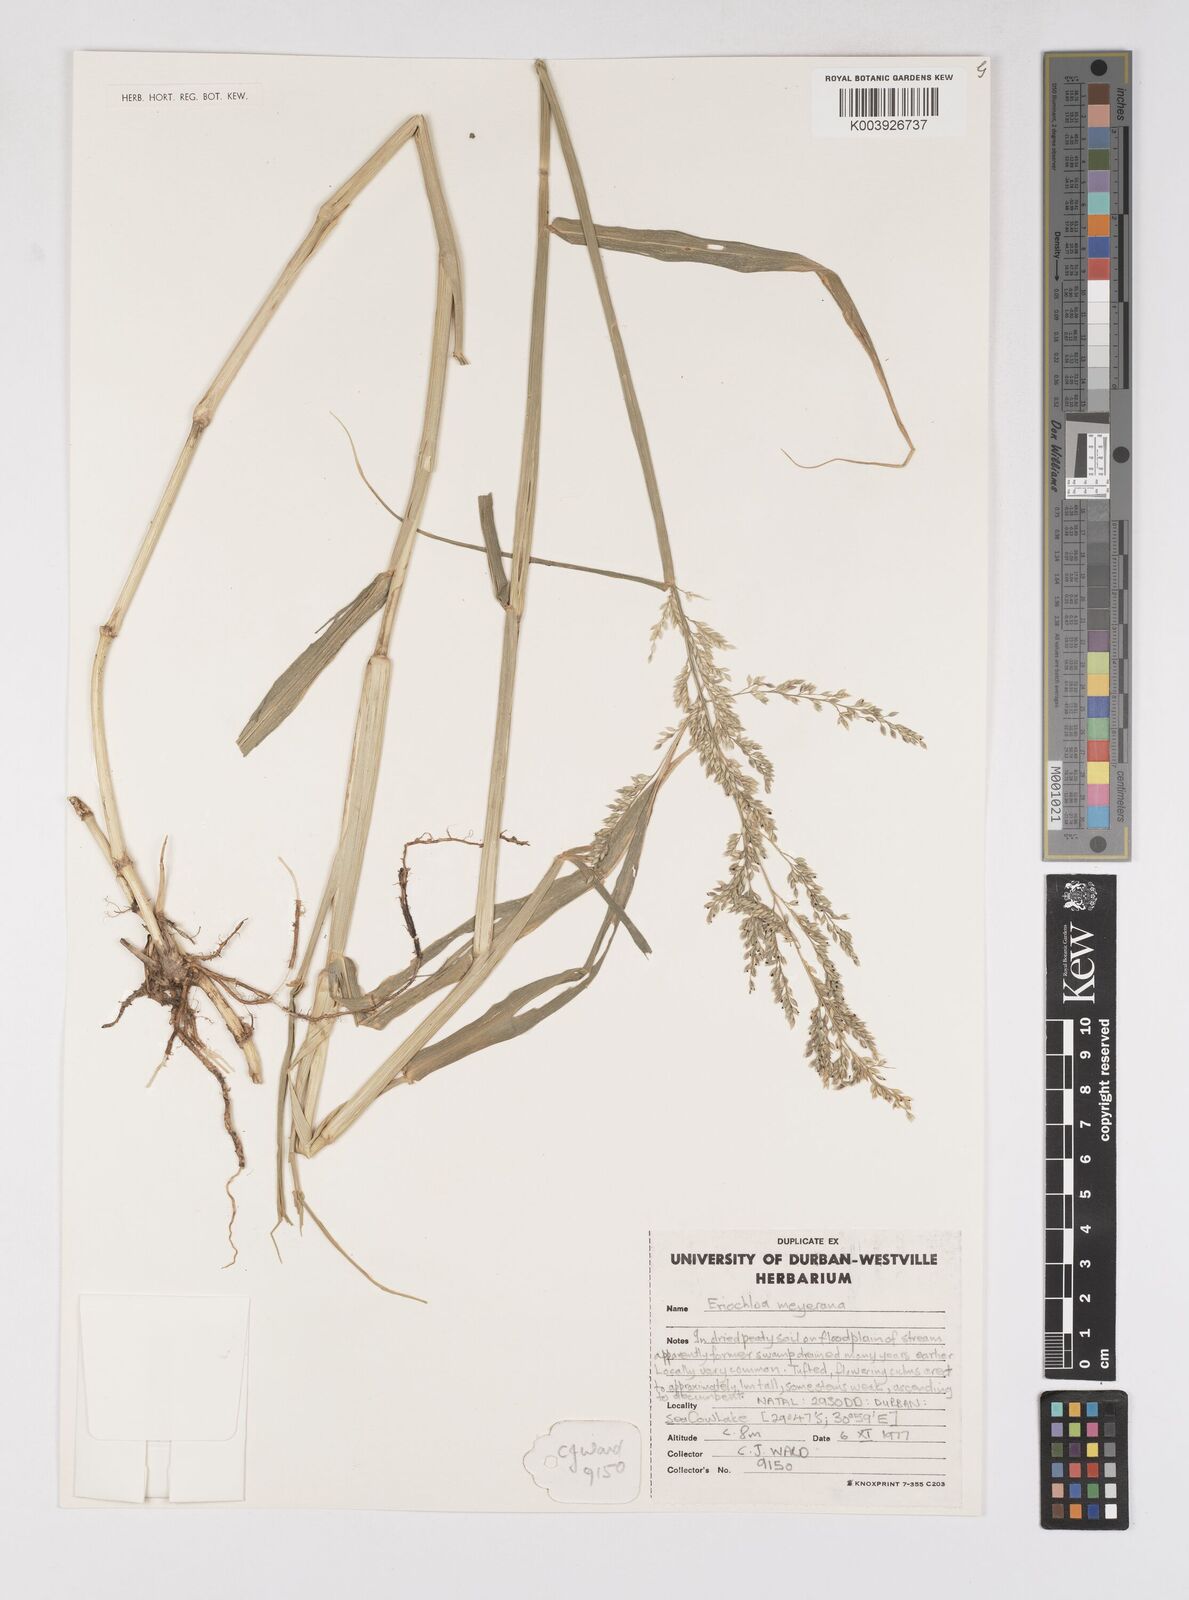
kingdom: Plantae
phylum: Tracheophyta
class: Liliopsida
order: Poales
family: Poaceae
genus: Eriochloa
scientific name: Eriochloa meyeriana
